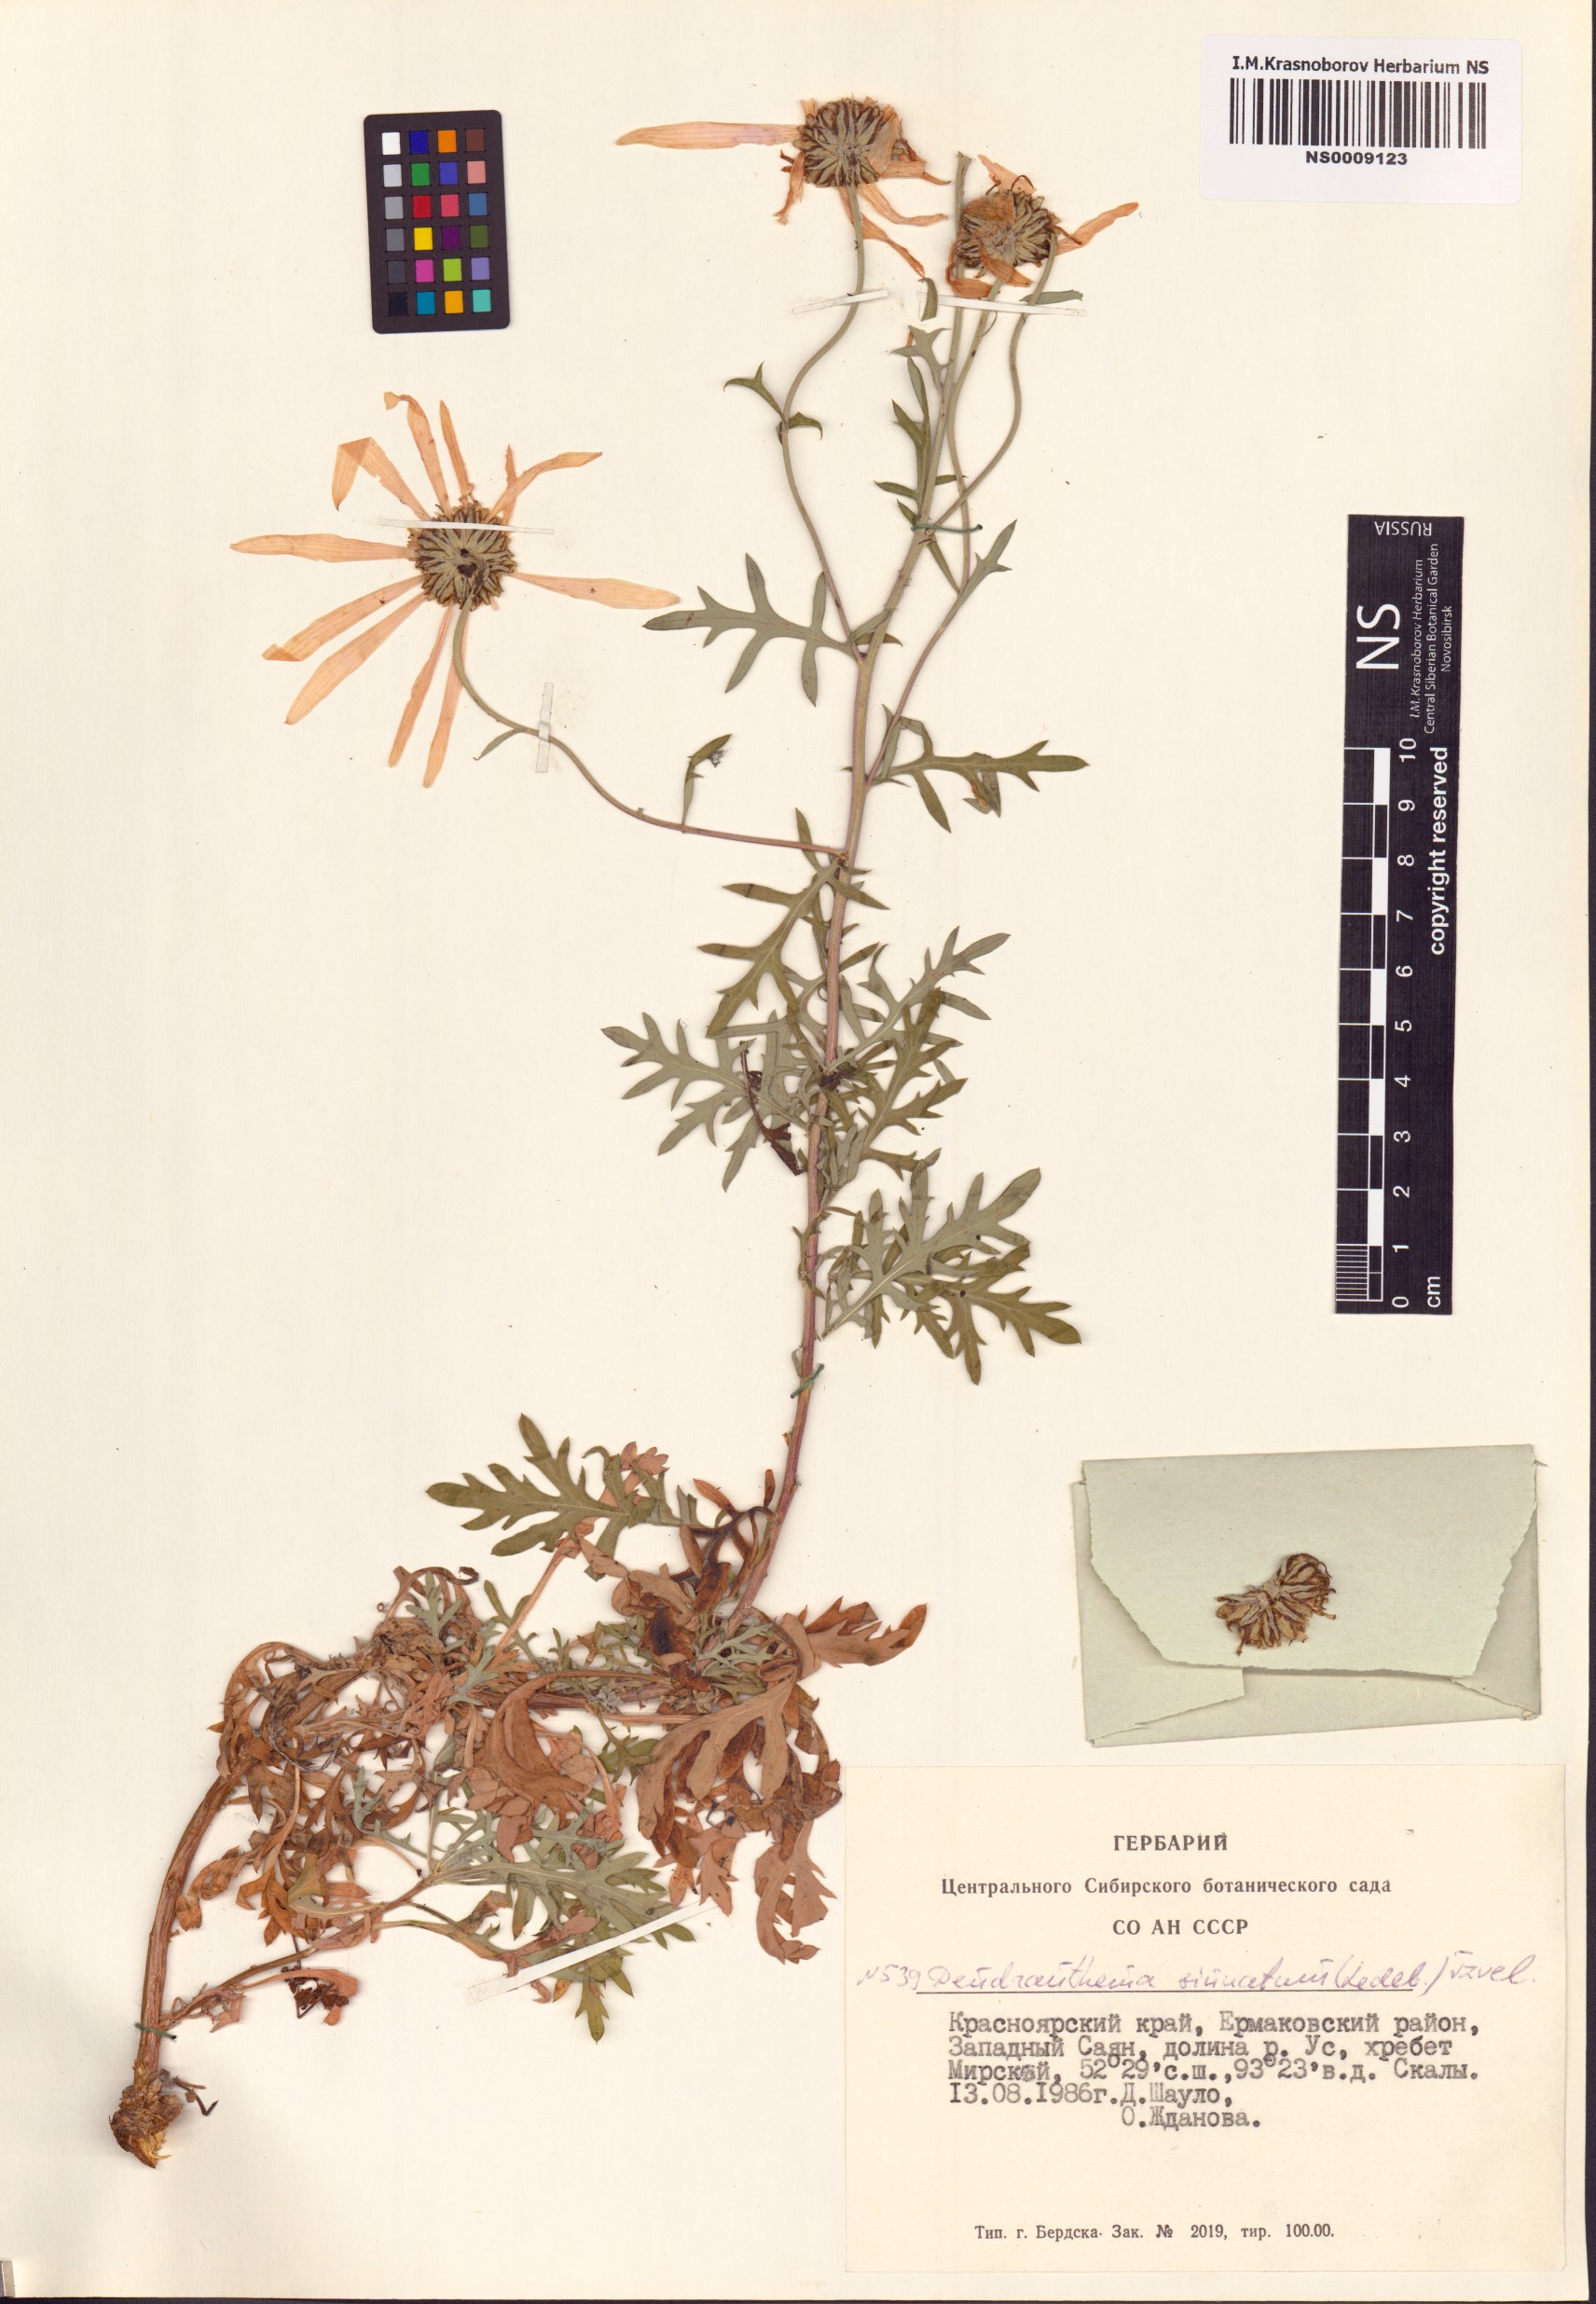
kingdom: Plantae
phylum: Tracheophyta
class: Magnoliopsida
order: Asterales
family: Asteraceae
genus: Chrysanthemum
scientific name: Chrysanthemum sinuatum
